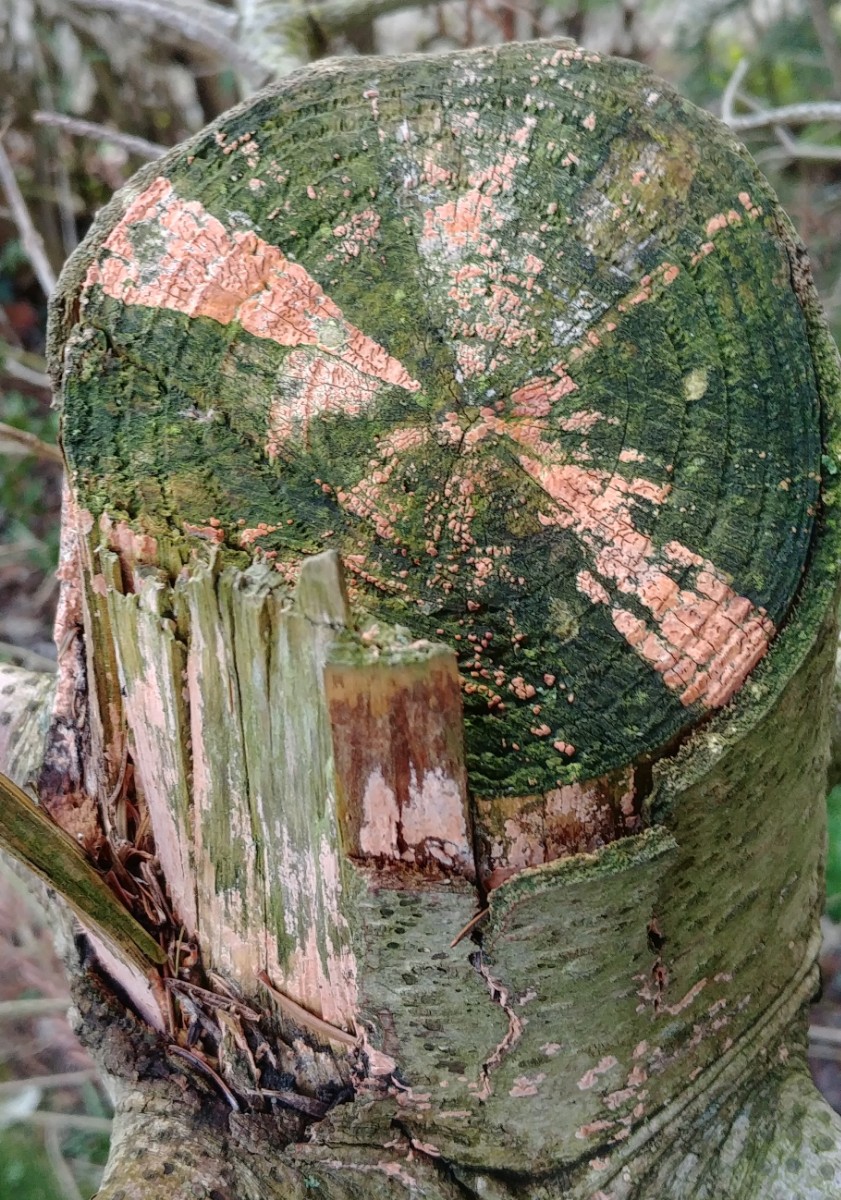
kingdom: Fungi
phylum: Basidiomycota
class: Agaricomycetes
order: Russulales
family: Peniophoraceae
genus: Peniophora
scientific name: Peniophora incarnata
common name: laksefarvet voksskind
